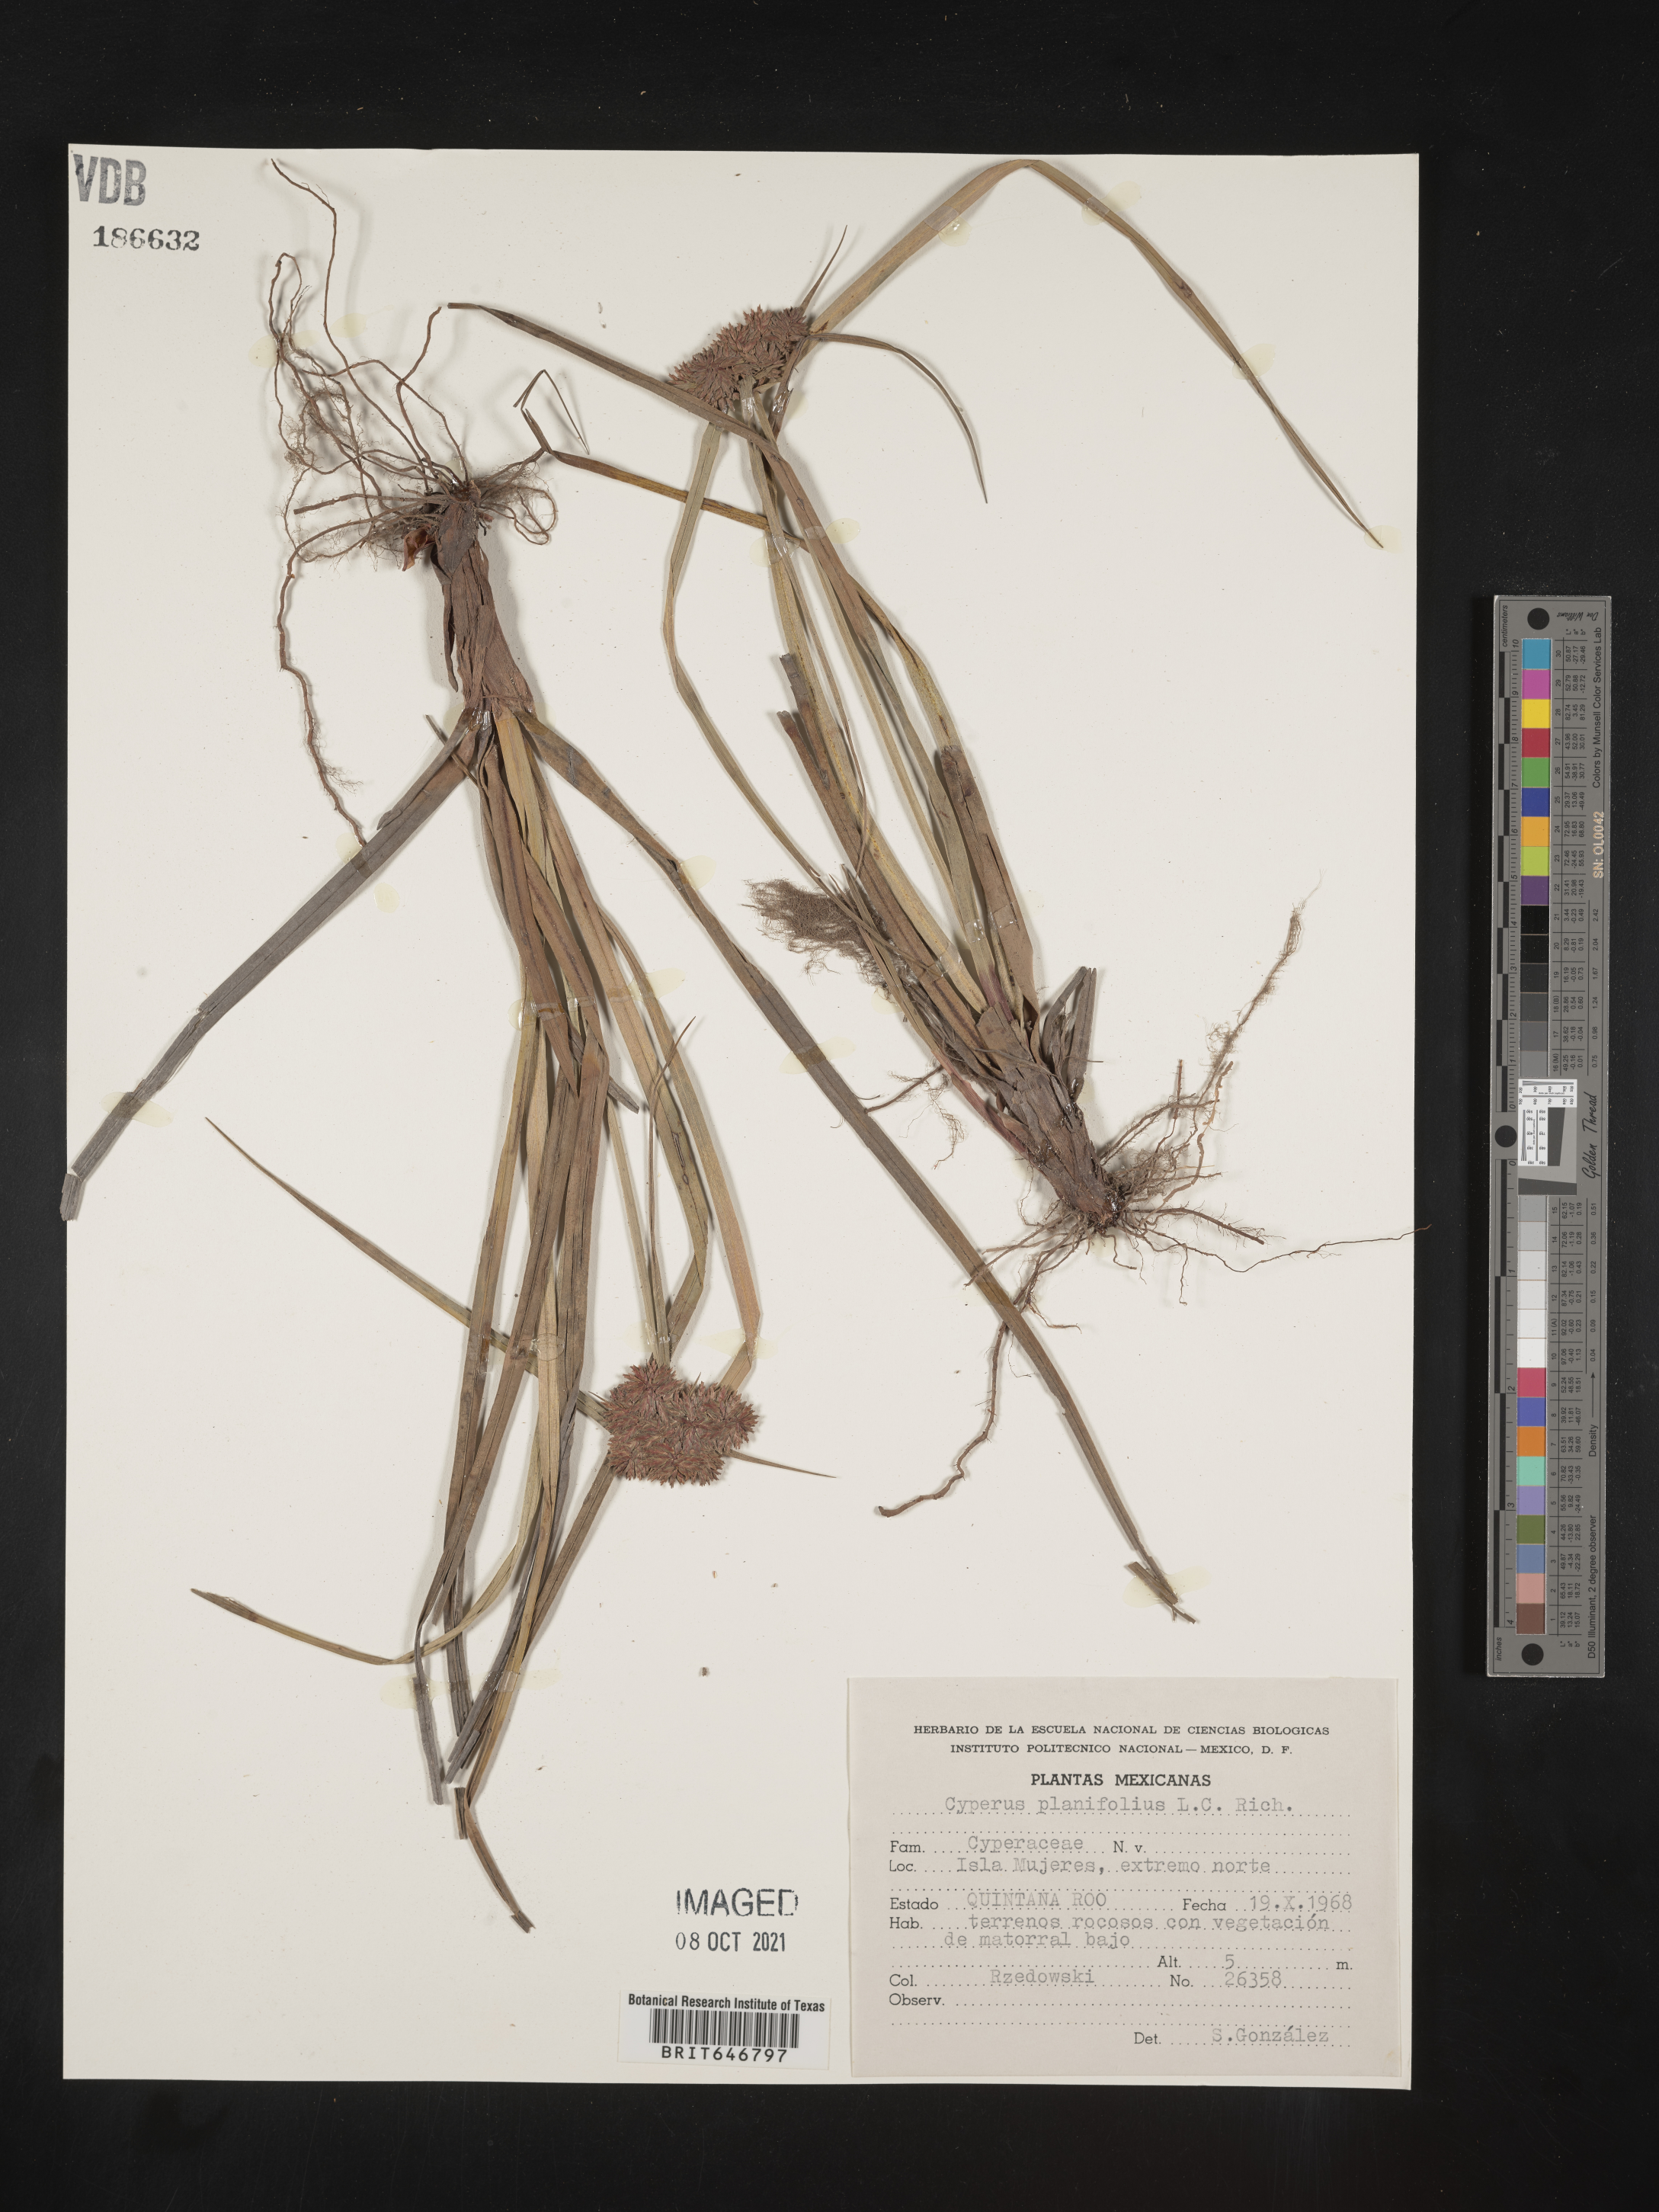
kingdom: Plantae
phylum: Tracheophyta
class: Liliopsida
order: Poales
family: Cyperaceae
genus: Cyperus
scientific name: Cyperus
